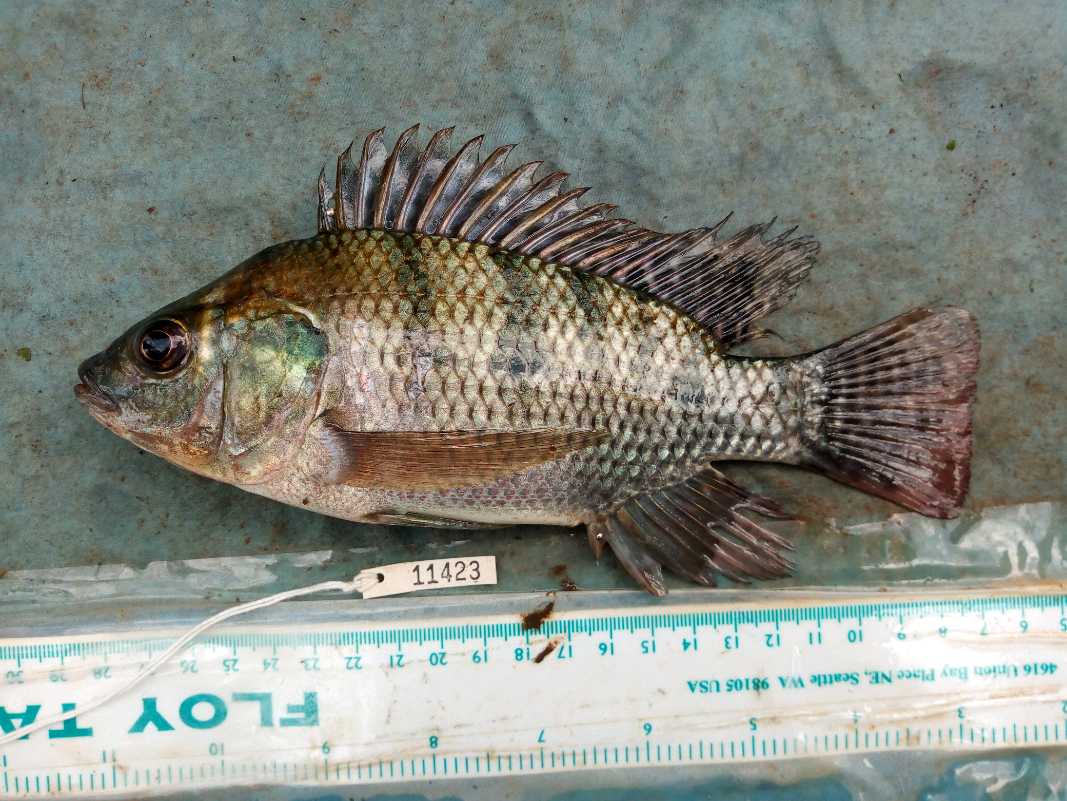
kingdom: Animalia
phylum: Chordata
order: Perciformes
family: Cichlidae
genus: Oreochromis
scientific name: Oreochromis niloticus
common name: Nile tilapia
